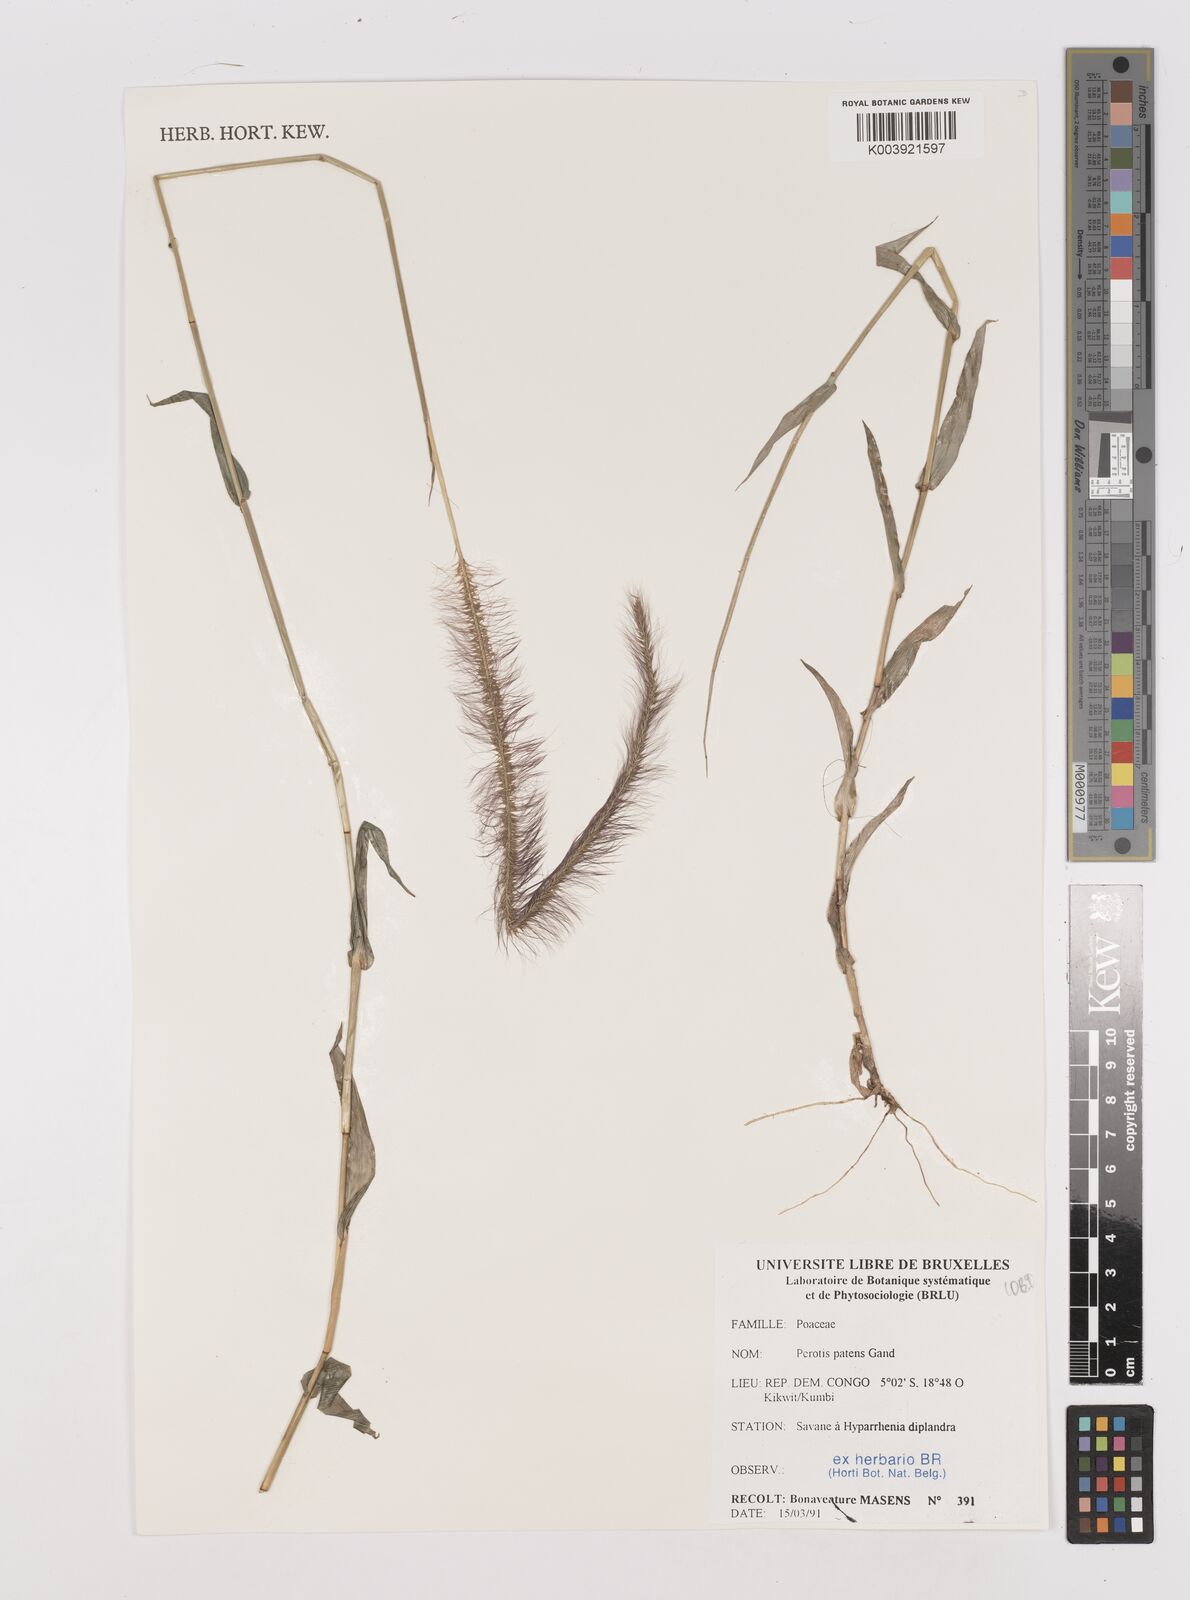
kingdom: Plantae
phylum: Tracheophyta
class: Liliopsida
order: Poales
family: Poaceae
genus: Perotis
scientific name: Perotis patens
